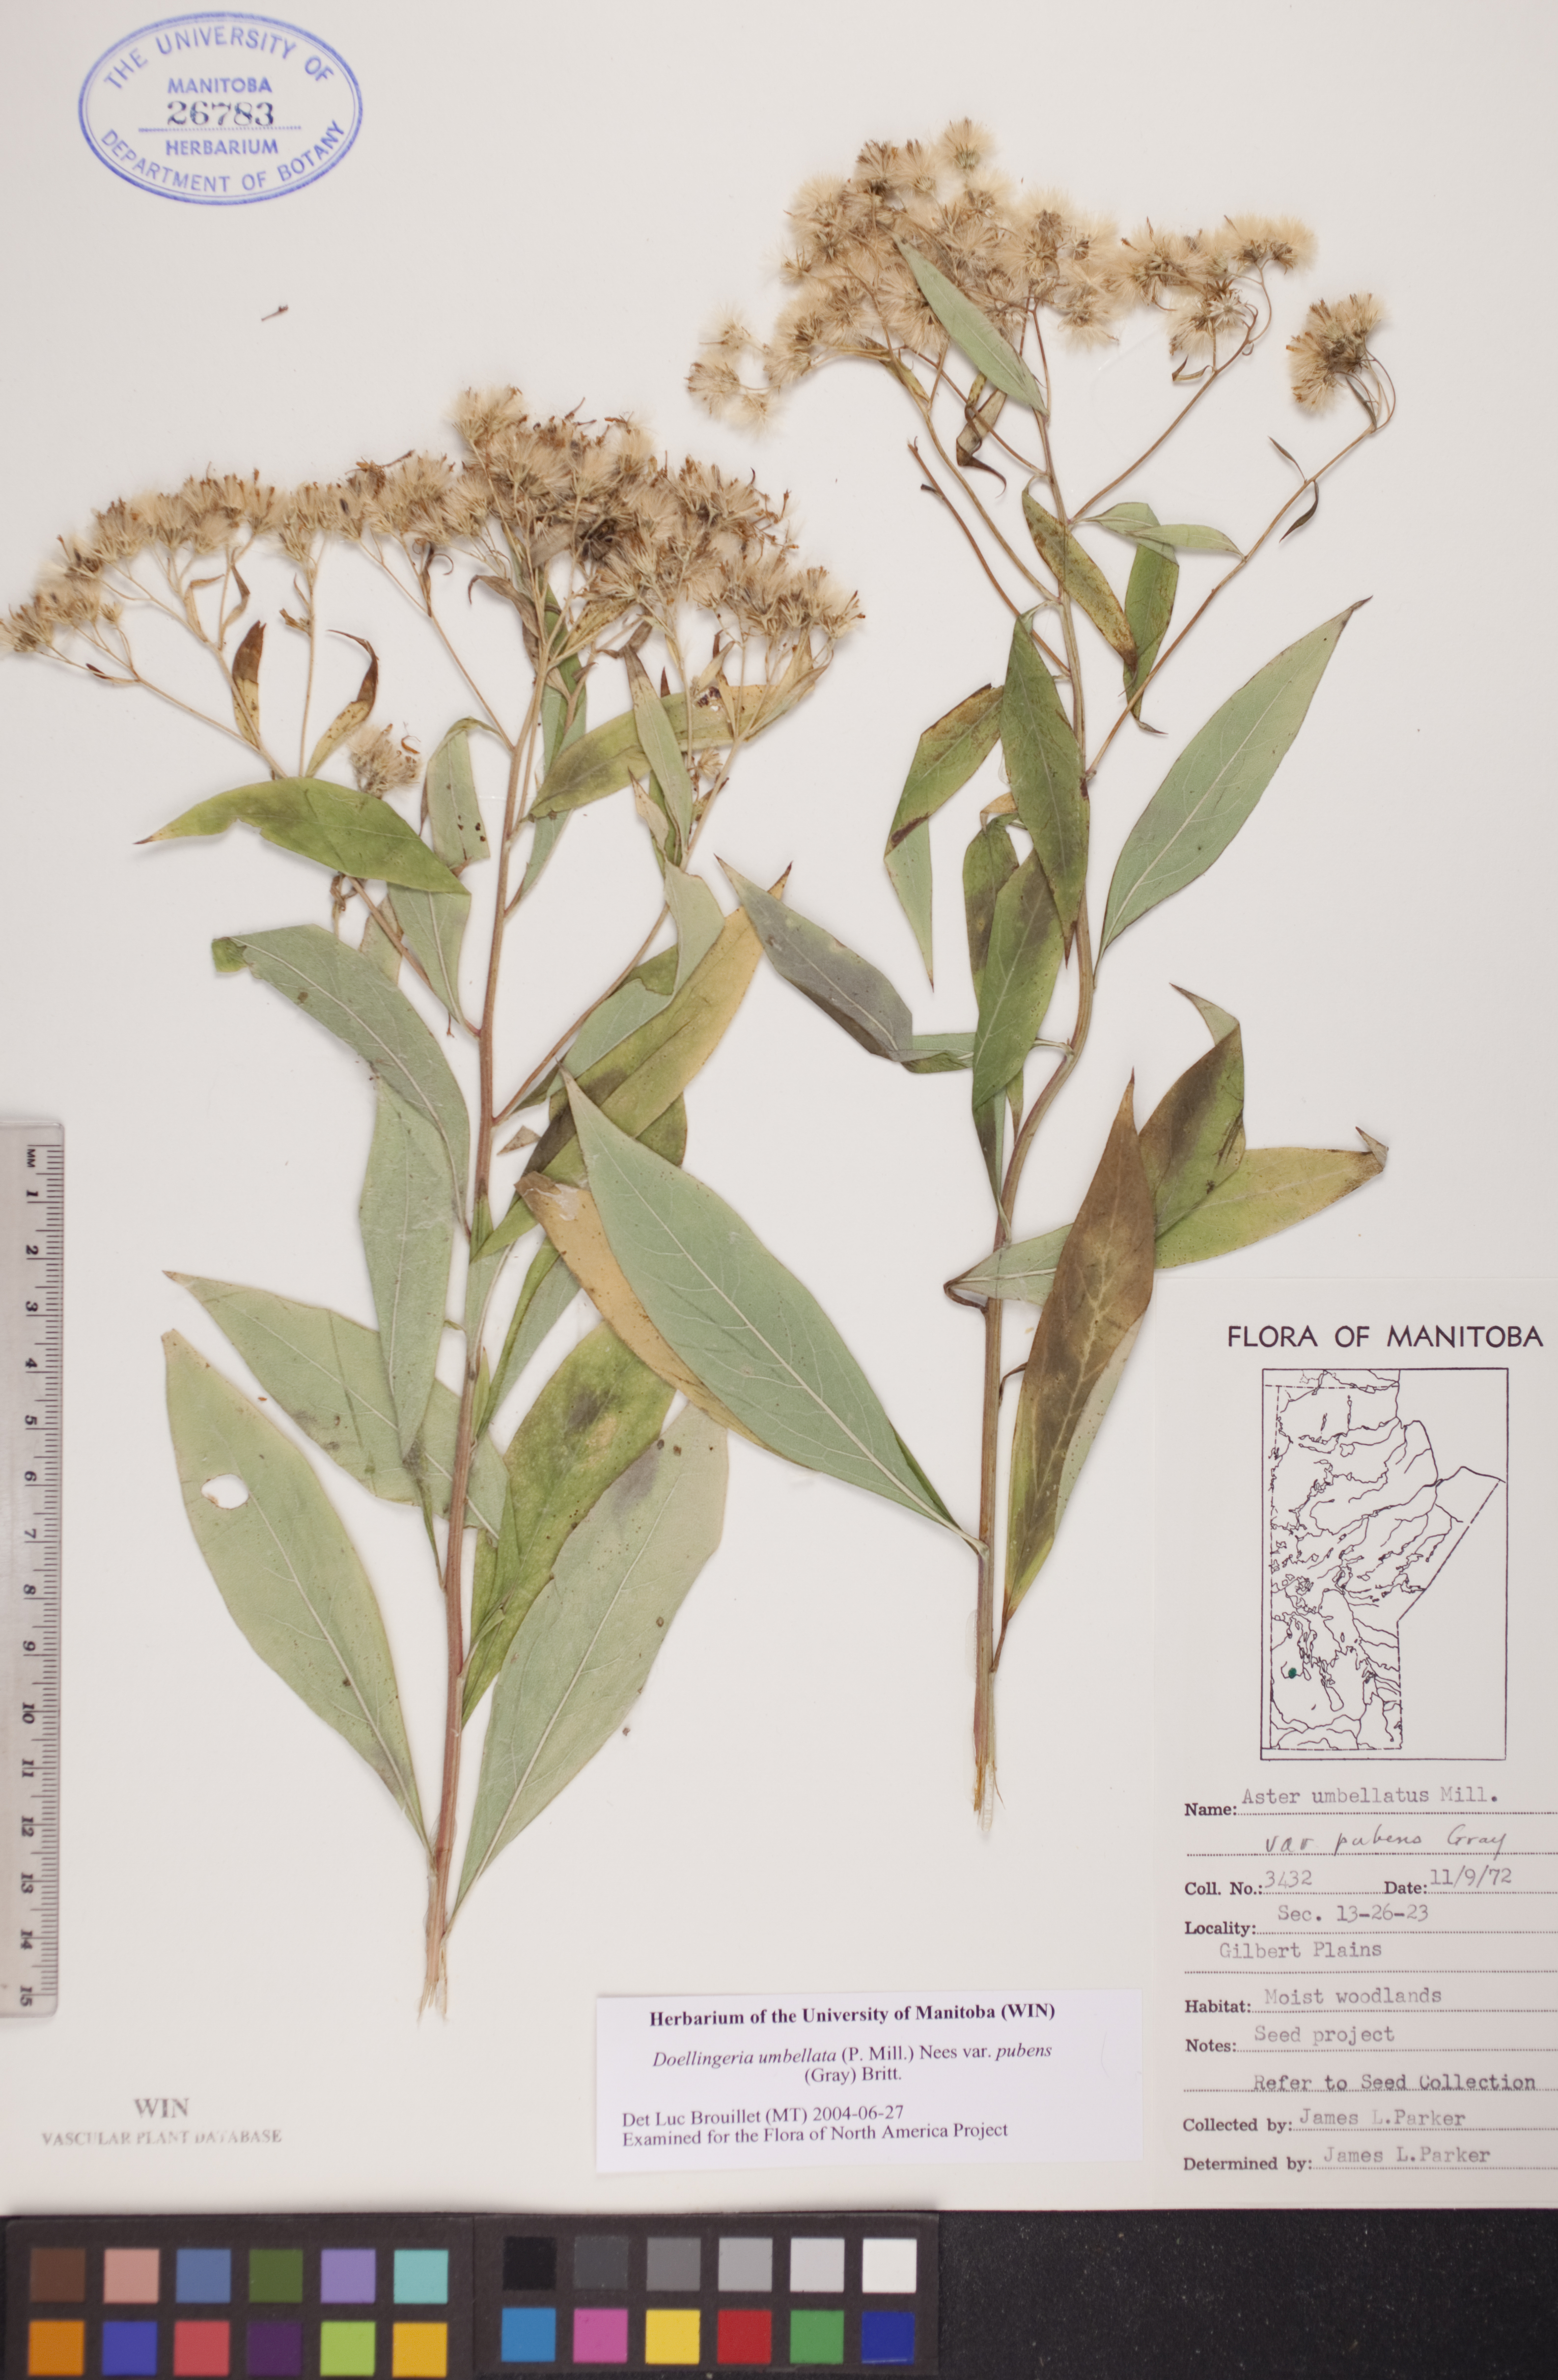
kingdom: Plantae
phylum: Tracheophyta
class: Magnoliopsida
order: Asterales
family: Asteraceae
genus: Doellingeria
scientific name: Doellingeria umbellata
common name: Flat-top white aster
